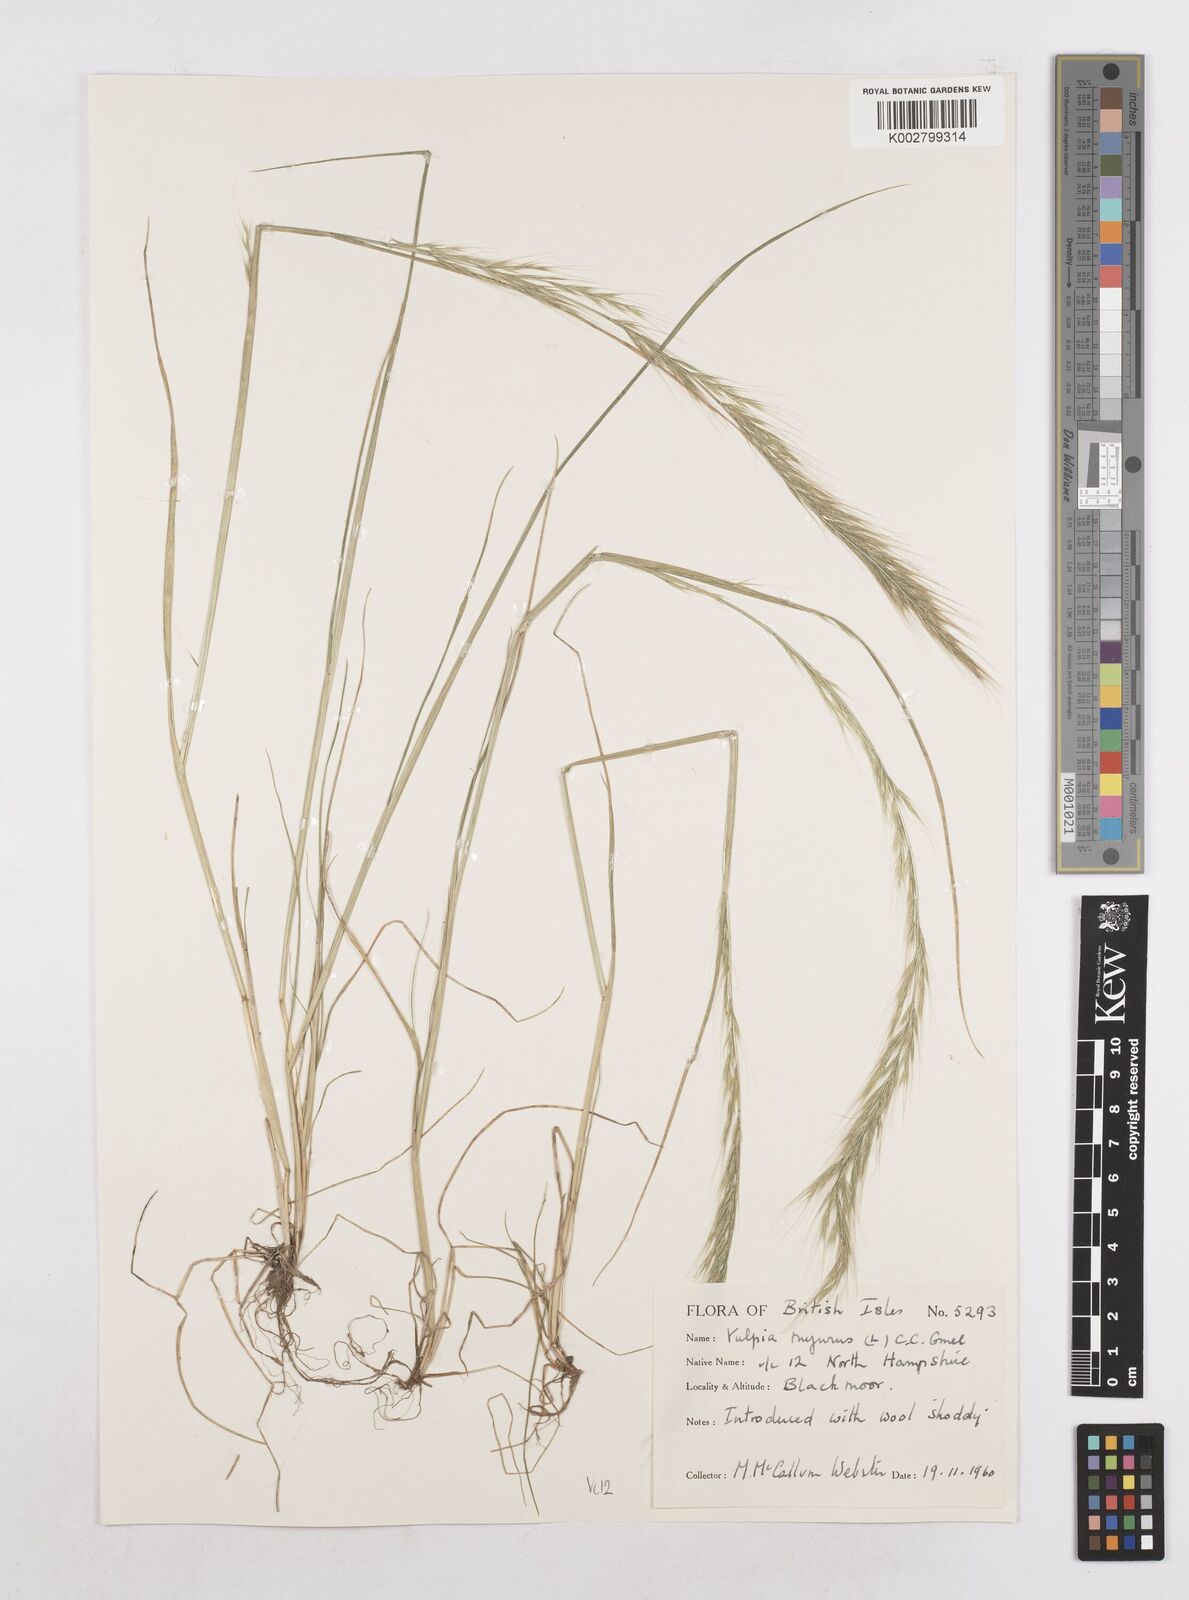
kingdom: Plantae
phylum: Tracheophyta
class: Liliopsida
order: Poales
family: Poaceae
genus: Festuca
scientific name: Festuca myuros
